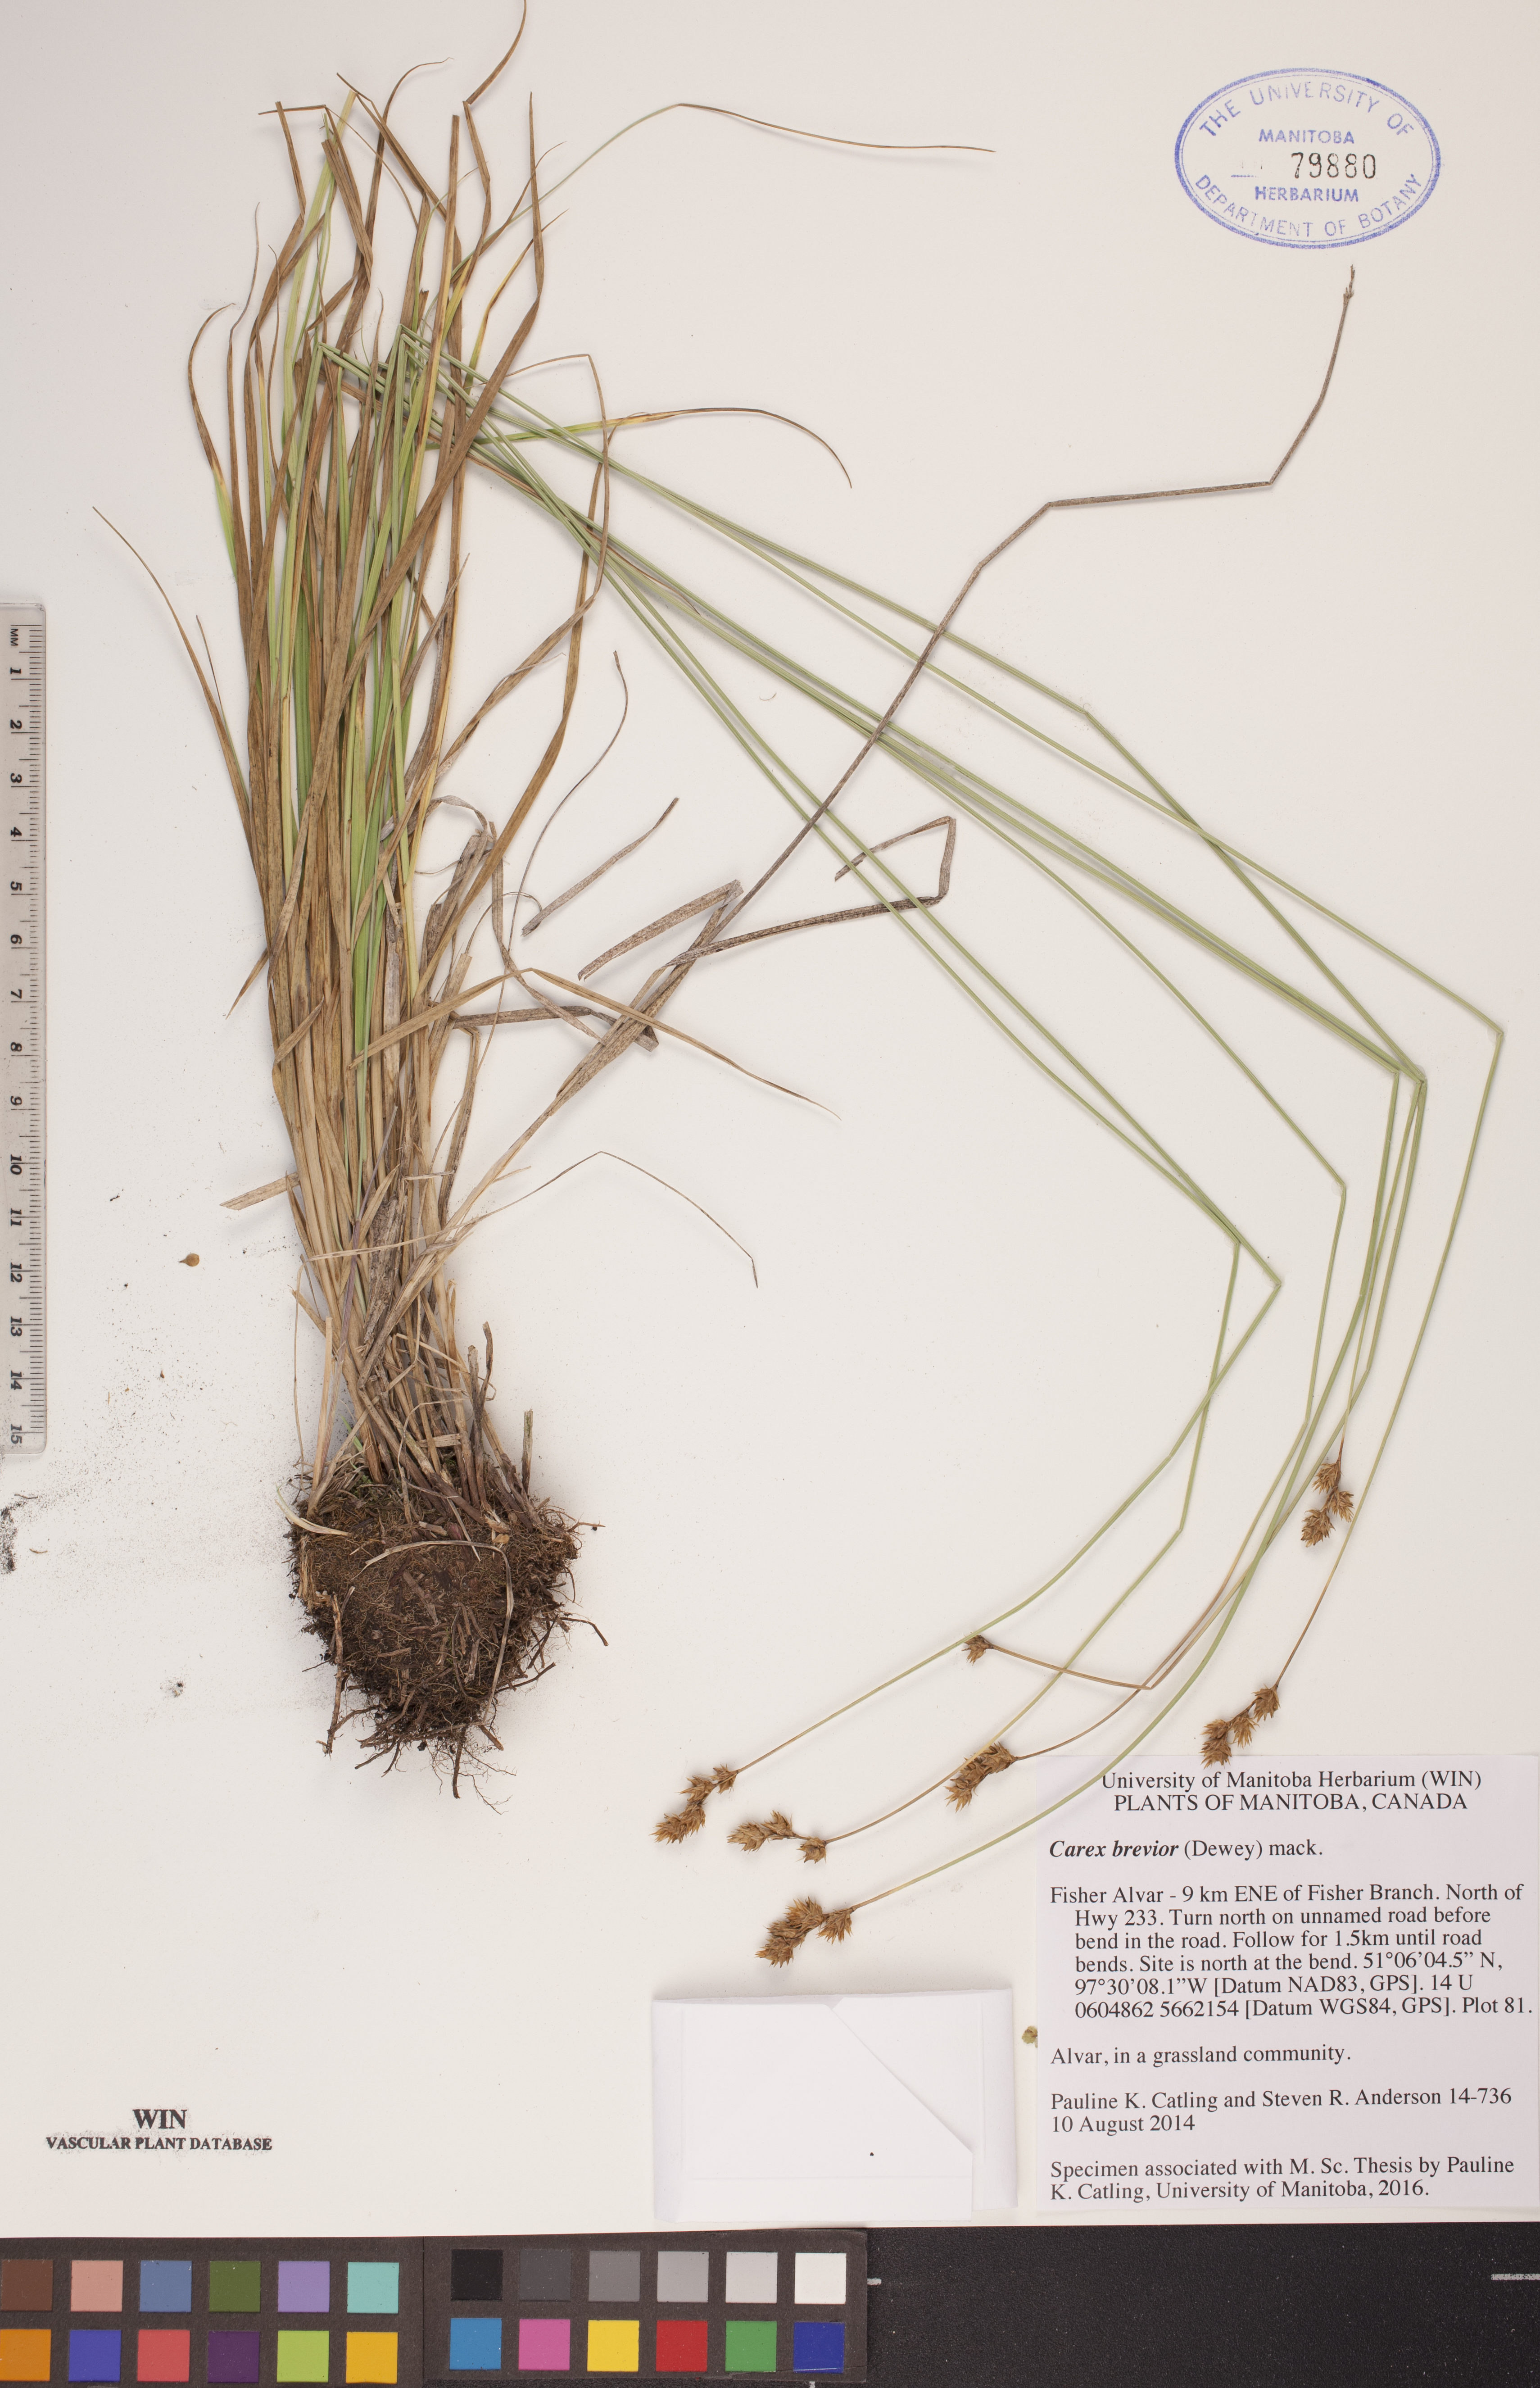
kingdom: Plantae
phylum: Tracheophyta
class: Liliopsida
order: Poales
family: Cyperaceae
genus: Carex
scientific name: Carex brevior
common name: Brevior sedge
